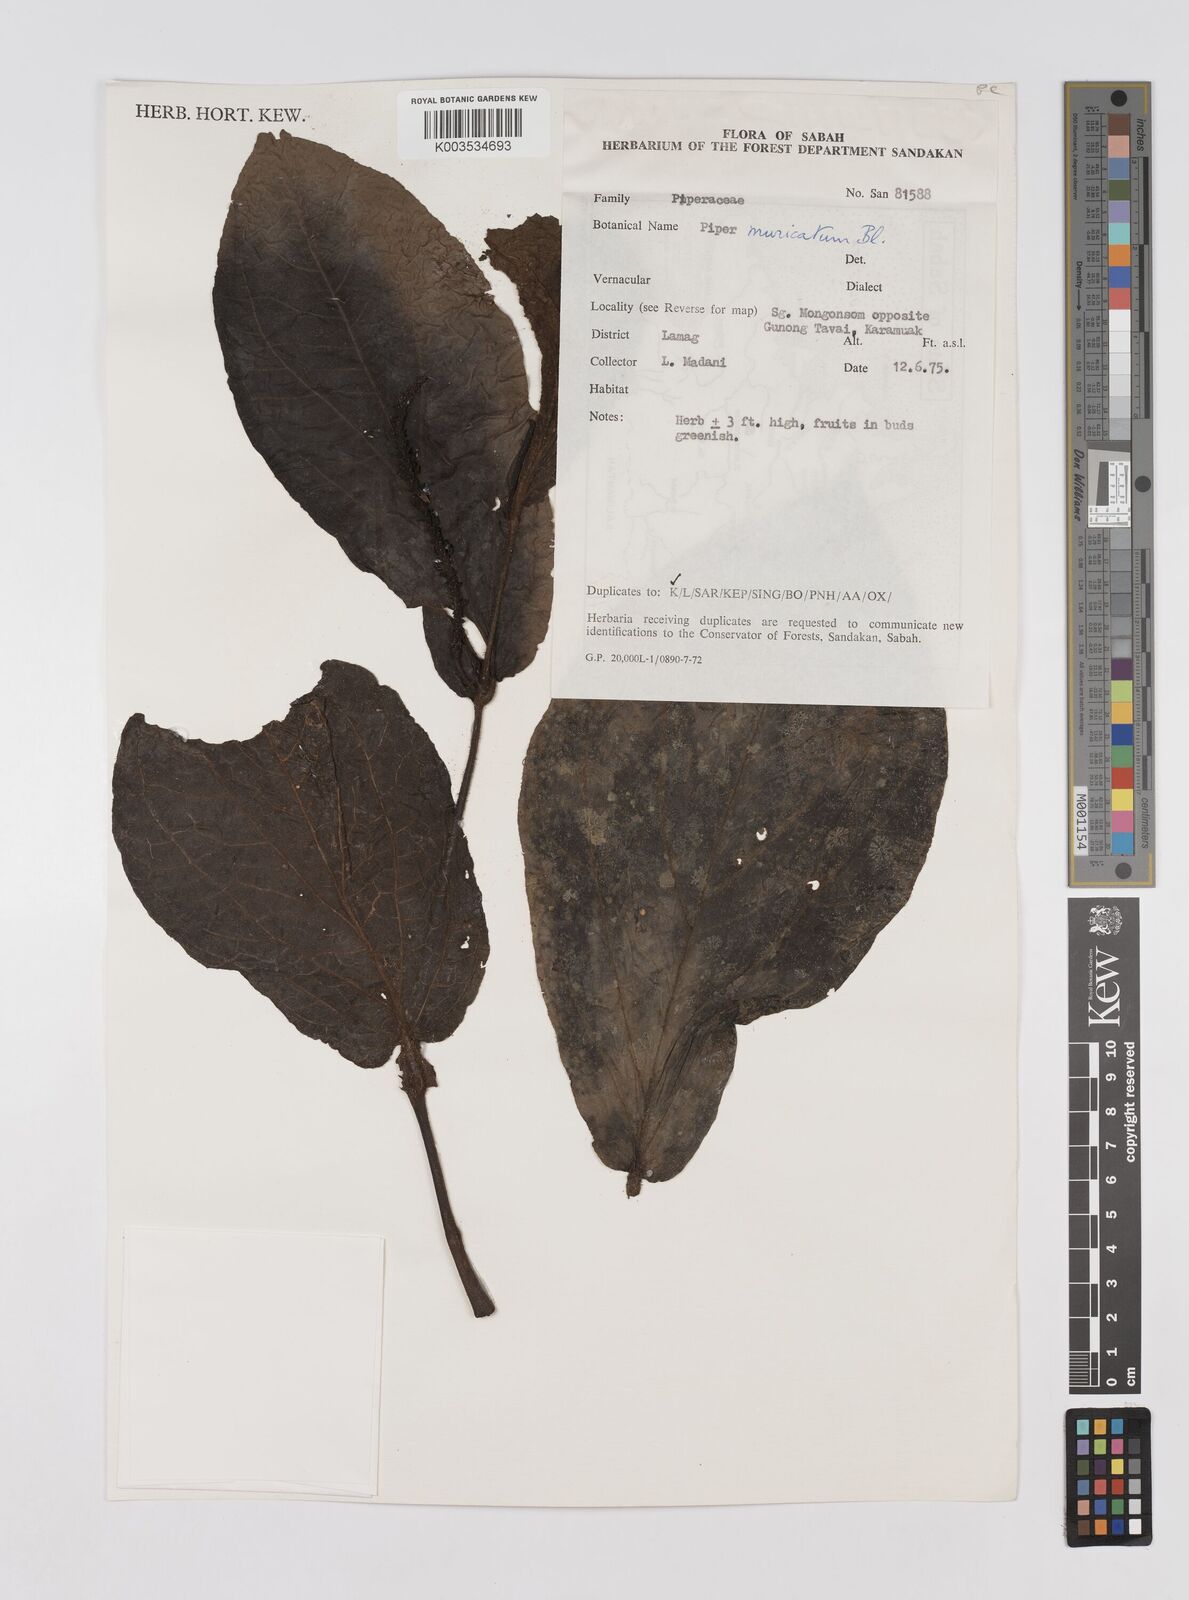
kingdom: Plantae
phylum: Tracheophyta
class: Magnoliopsida
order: Piperales
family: Piperaceae
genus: Piper
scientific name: Piper muricatum
